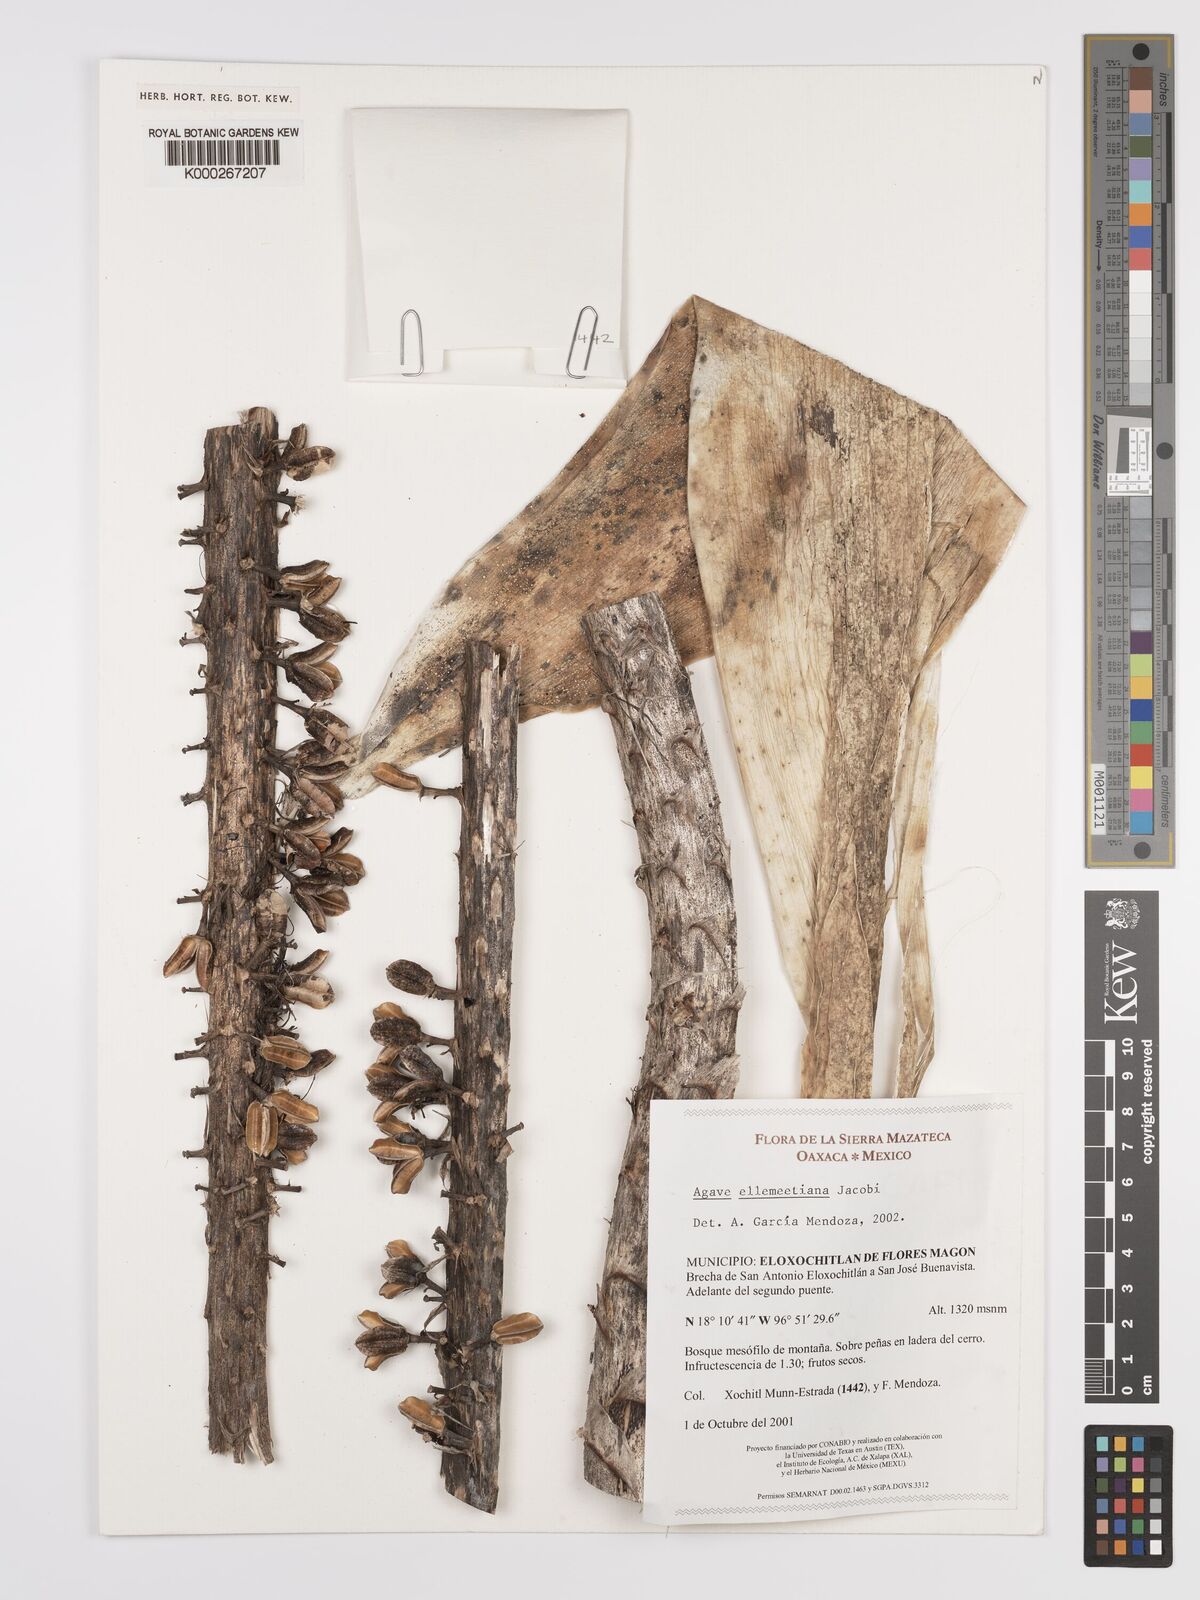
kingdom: Plantae
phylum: Tracheophyta
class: Liliopsida
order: Asparagales
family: Asparagaceae
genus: Agave
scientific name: Agave
